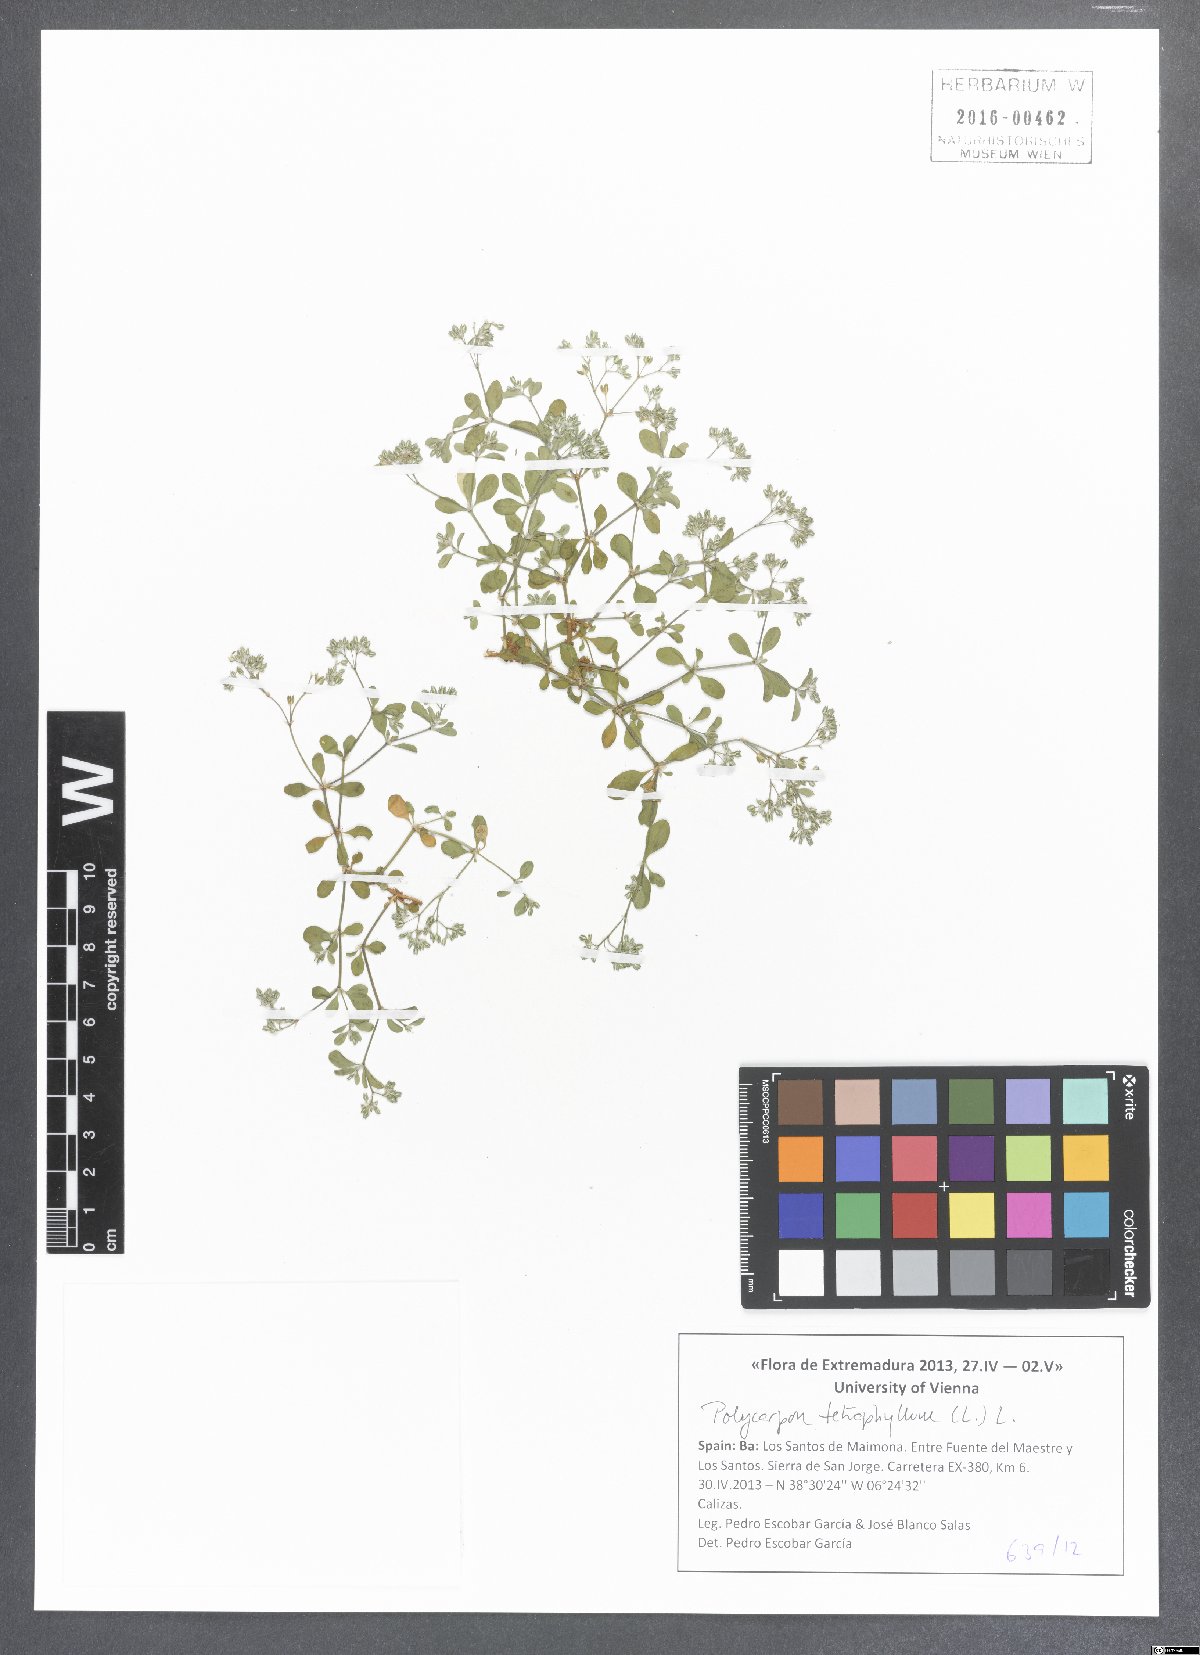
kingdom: Plantae
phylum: Tracheophyta
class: Magnoliopsida
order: Caryophyllales
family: Caryophyllaceae
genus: Polycarpon
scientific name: Polycarpon tetraphyllum
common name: Four-leaved all-seed
